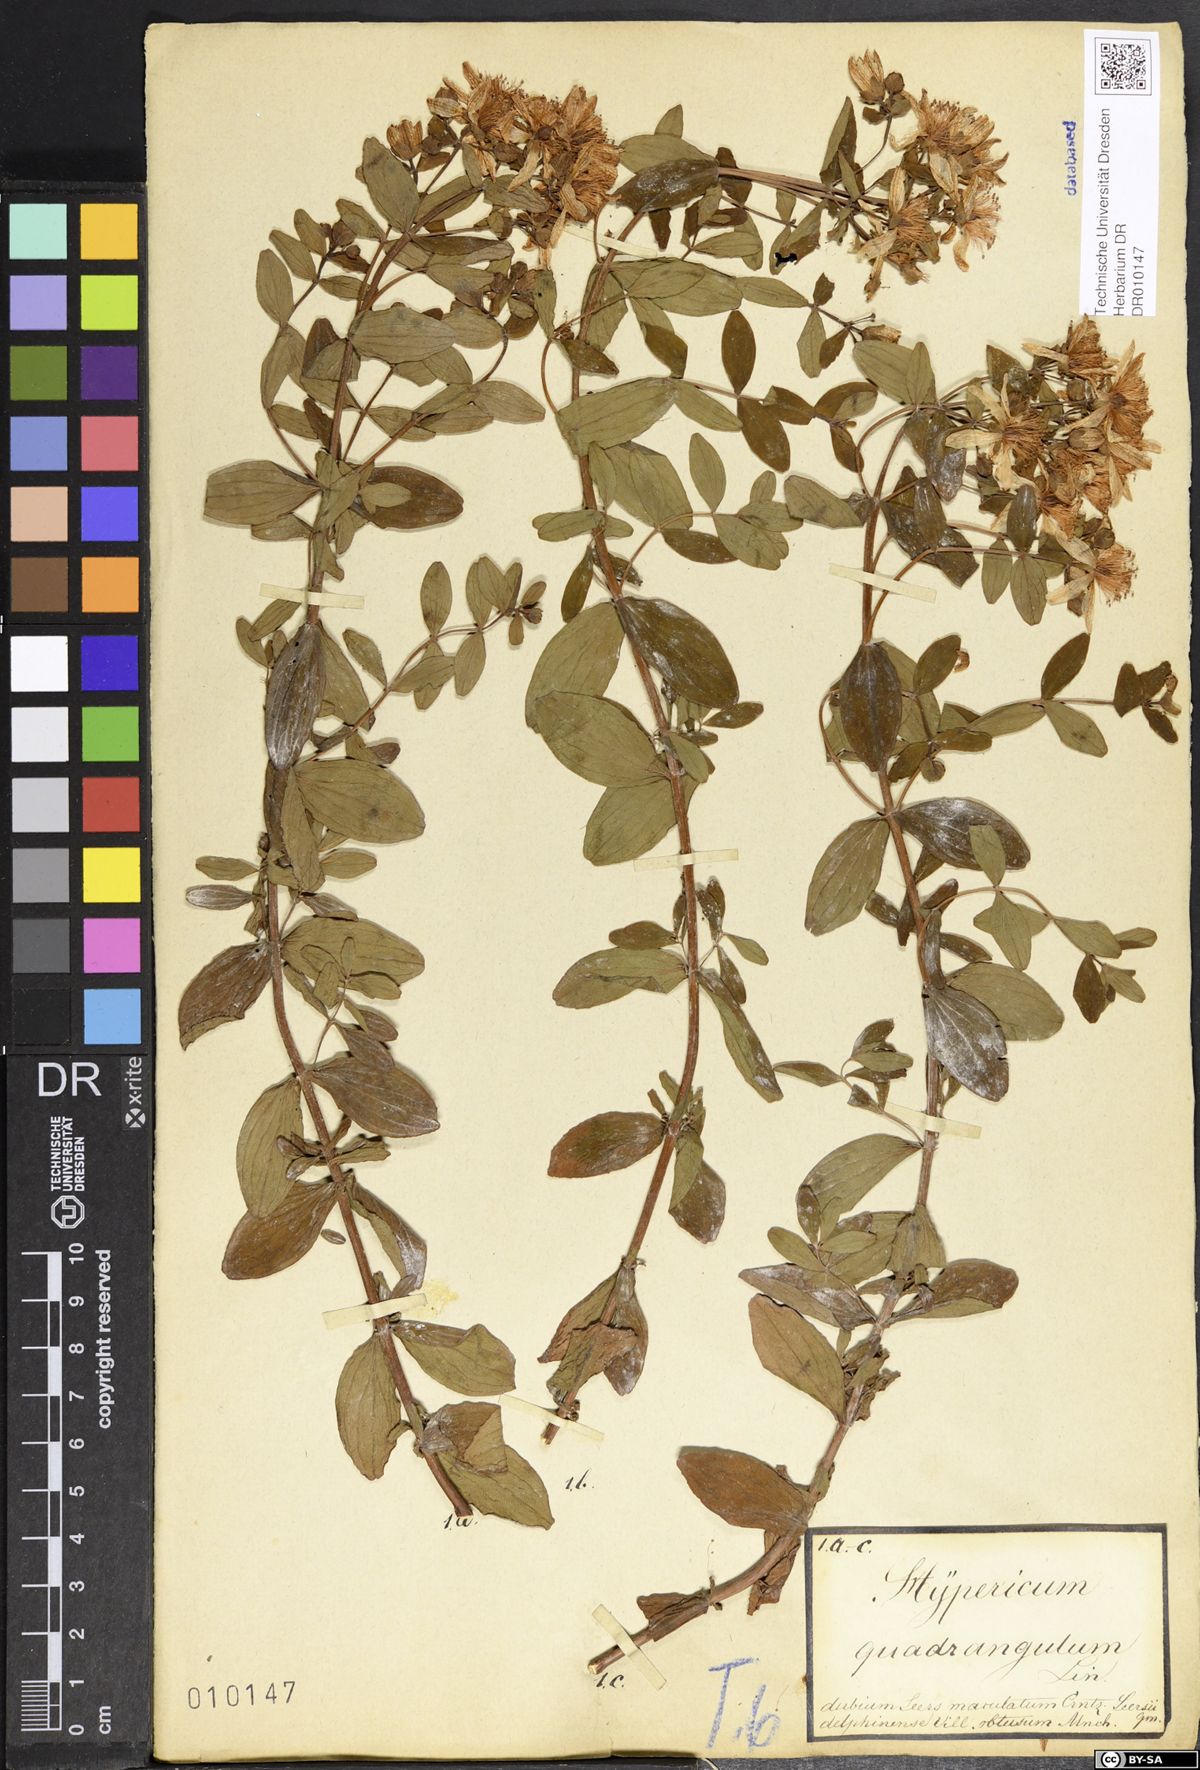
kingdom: Plantae
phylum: Tracheophyta
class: Magnoliopsida
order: Malpighiales
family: Hypericaceae
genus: Hypericum
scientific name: Hypericum maculatum
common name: Imperforate st. john's-wort
